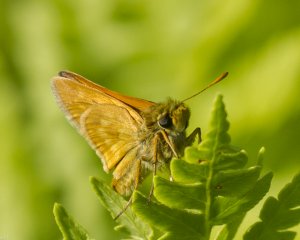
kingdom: Animalia
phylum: Arthropoda
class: Insecta
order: Lepidoptera
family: Hesperiidae
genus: Polites
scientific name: Polites
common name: Long Dash Skipper
